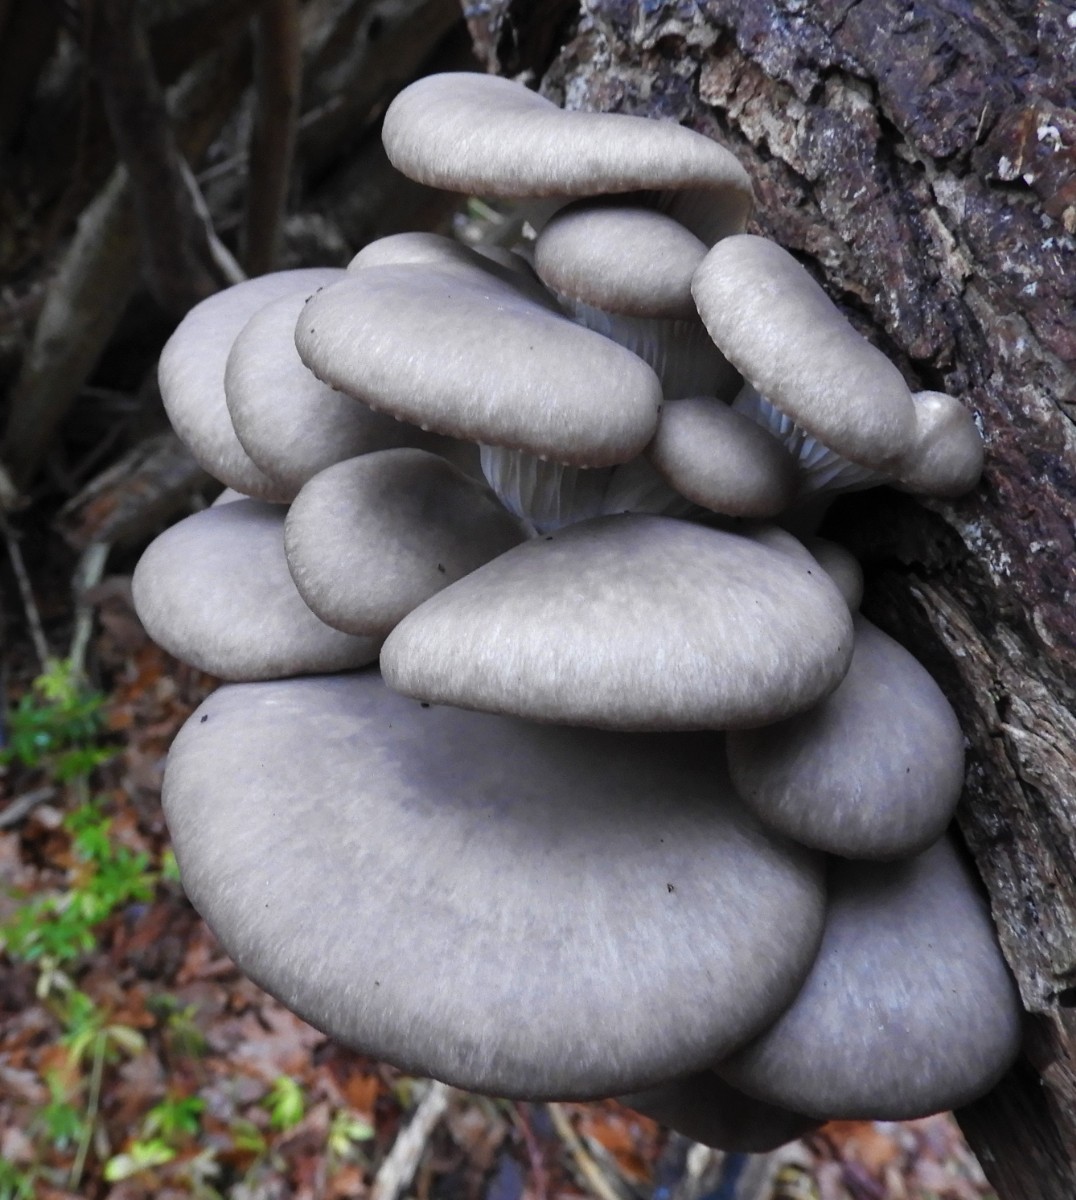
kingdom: Fungi
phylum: Basidiomycota
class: Agaricomycetes
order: Agaricales
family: Pleurotaceae
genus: Pleurotus
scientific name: Pleurotus ostreatus
